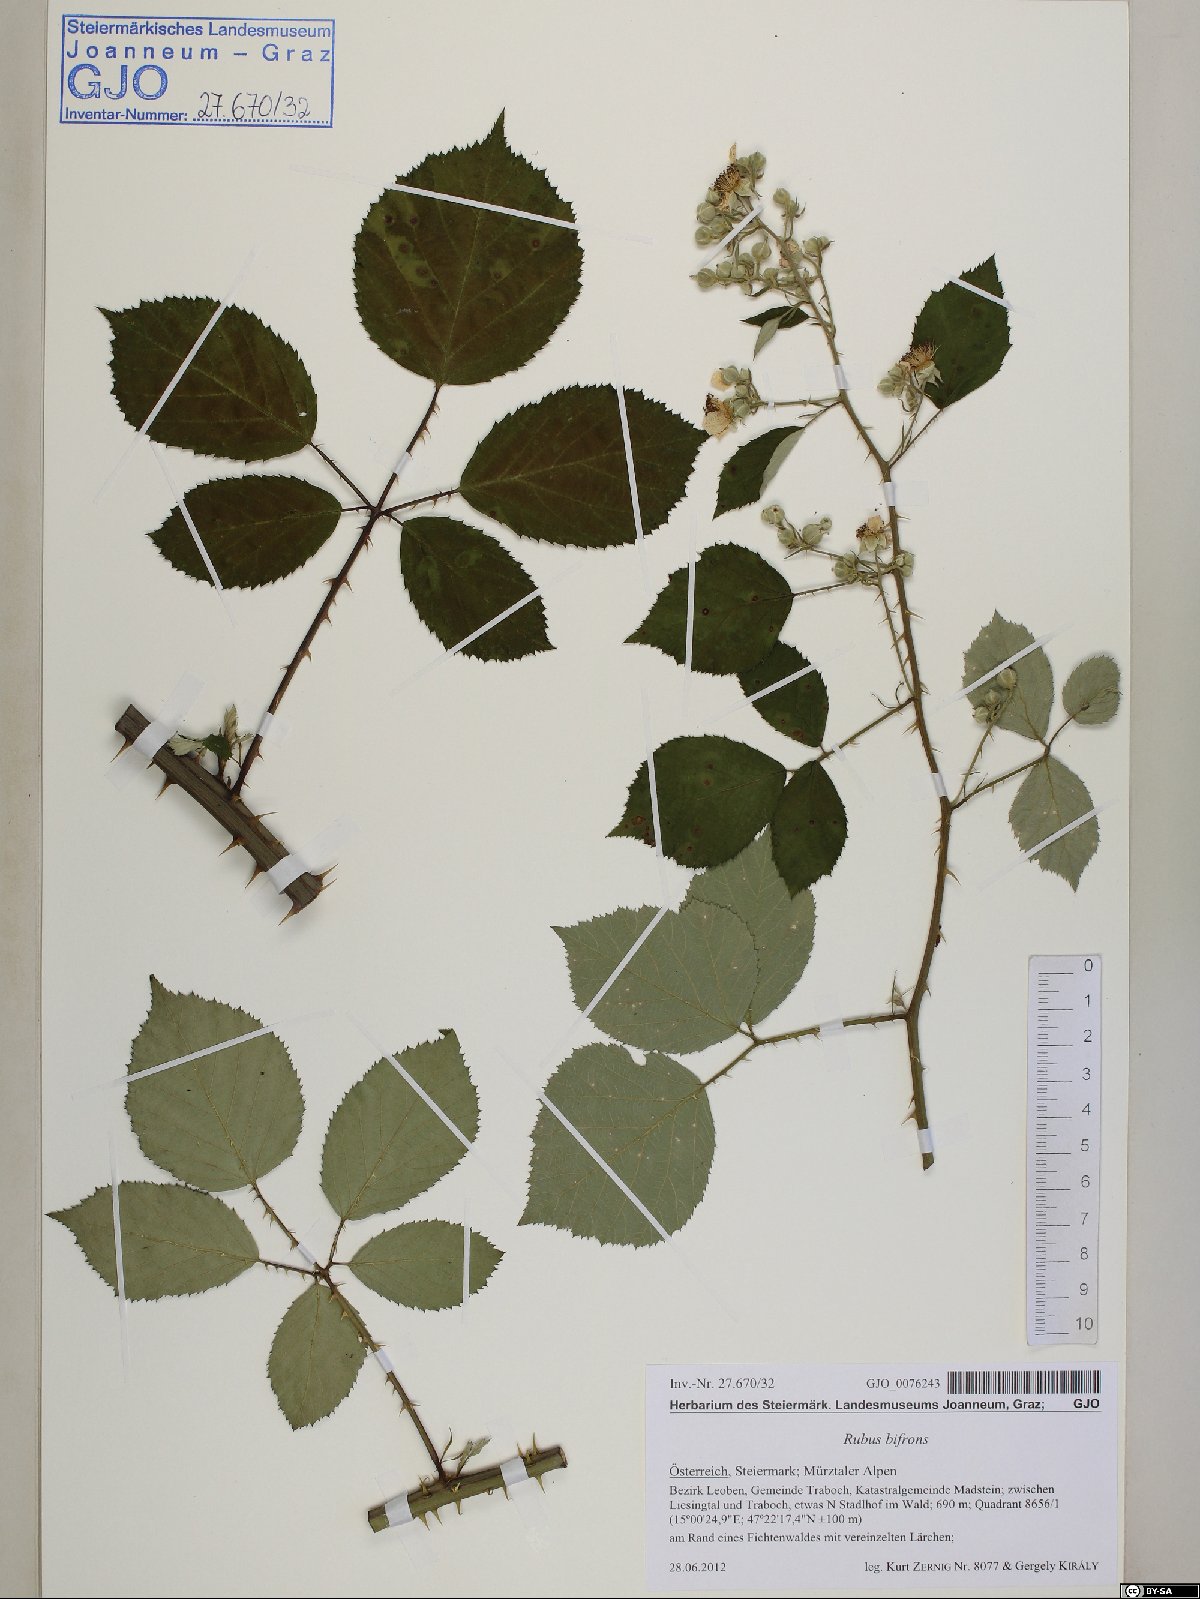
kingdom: Plantae
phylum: Tracheophyta
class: Magnoliopsida
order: Rosales
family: Rosaceae
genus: Rubus
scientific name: Rubus bifrons
